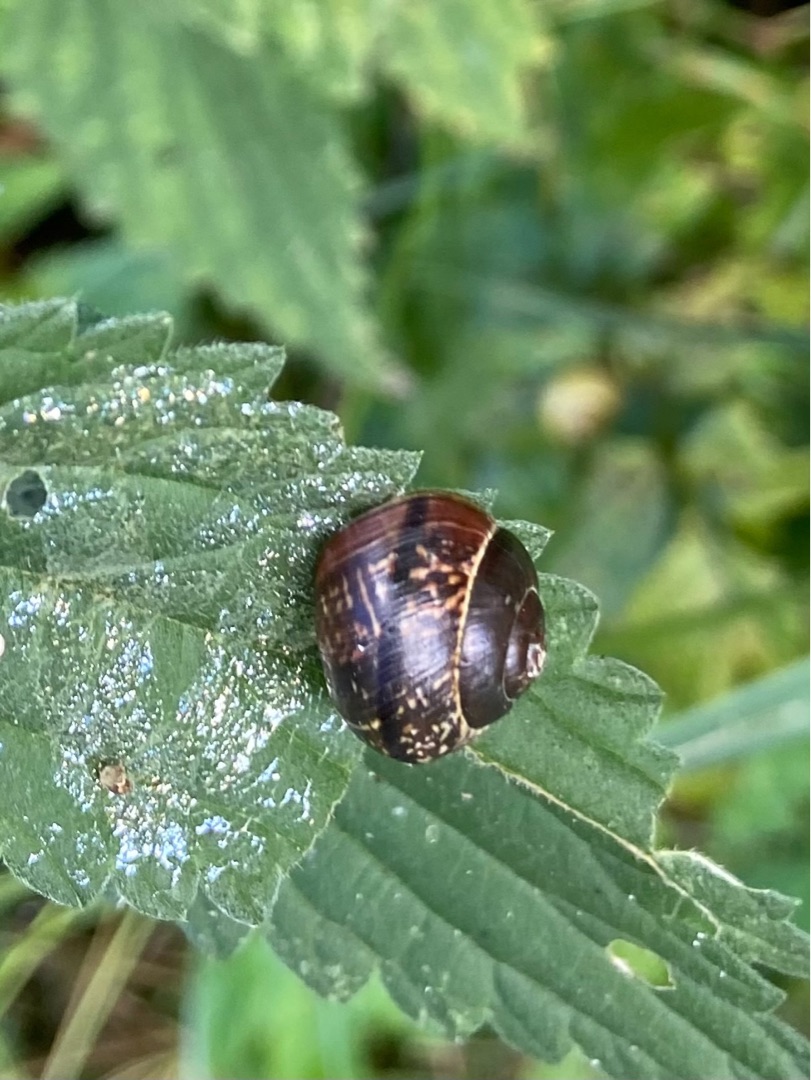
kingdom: Animalia
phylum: Mollusca
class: Gastropoda
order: Stylommatophora
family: Helicidae
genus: Arianta
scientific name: Arianta arbustorum
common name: Kratsnegl
